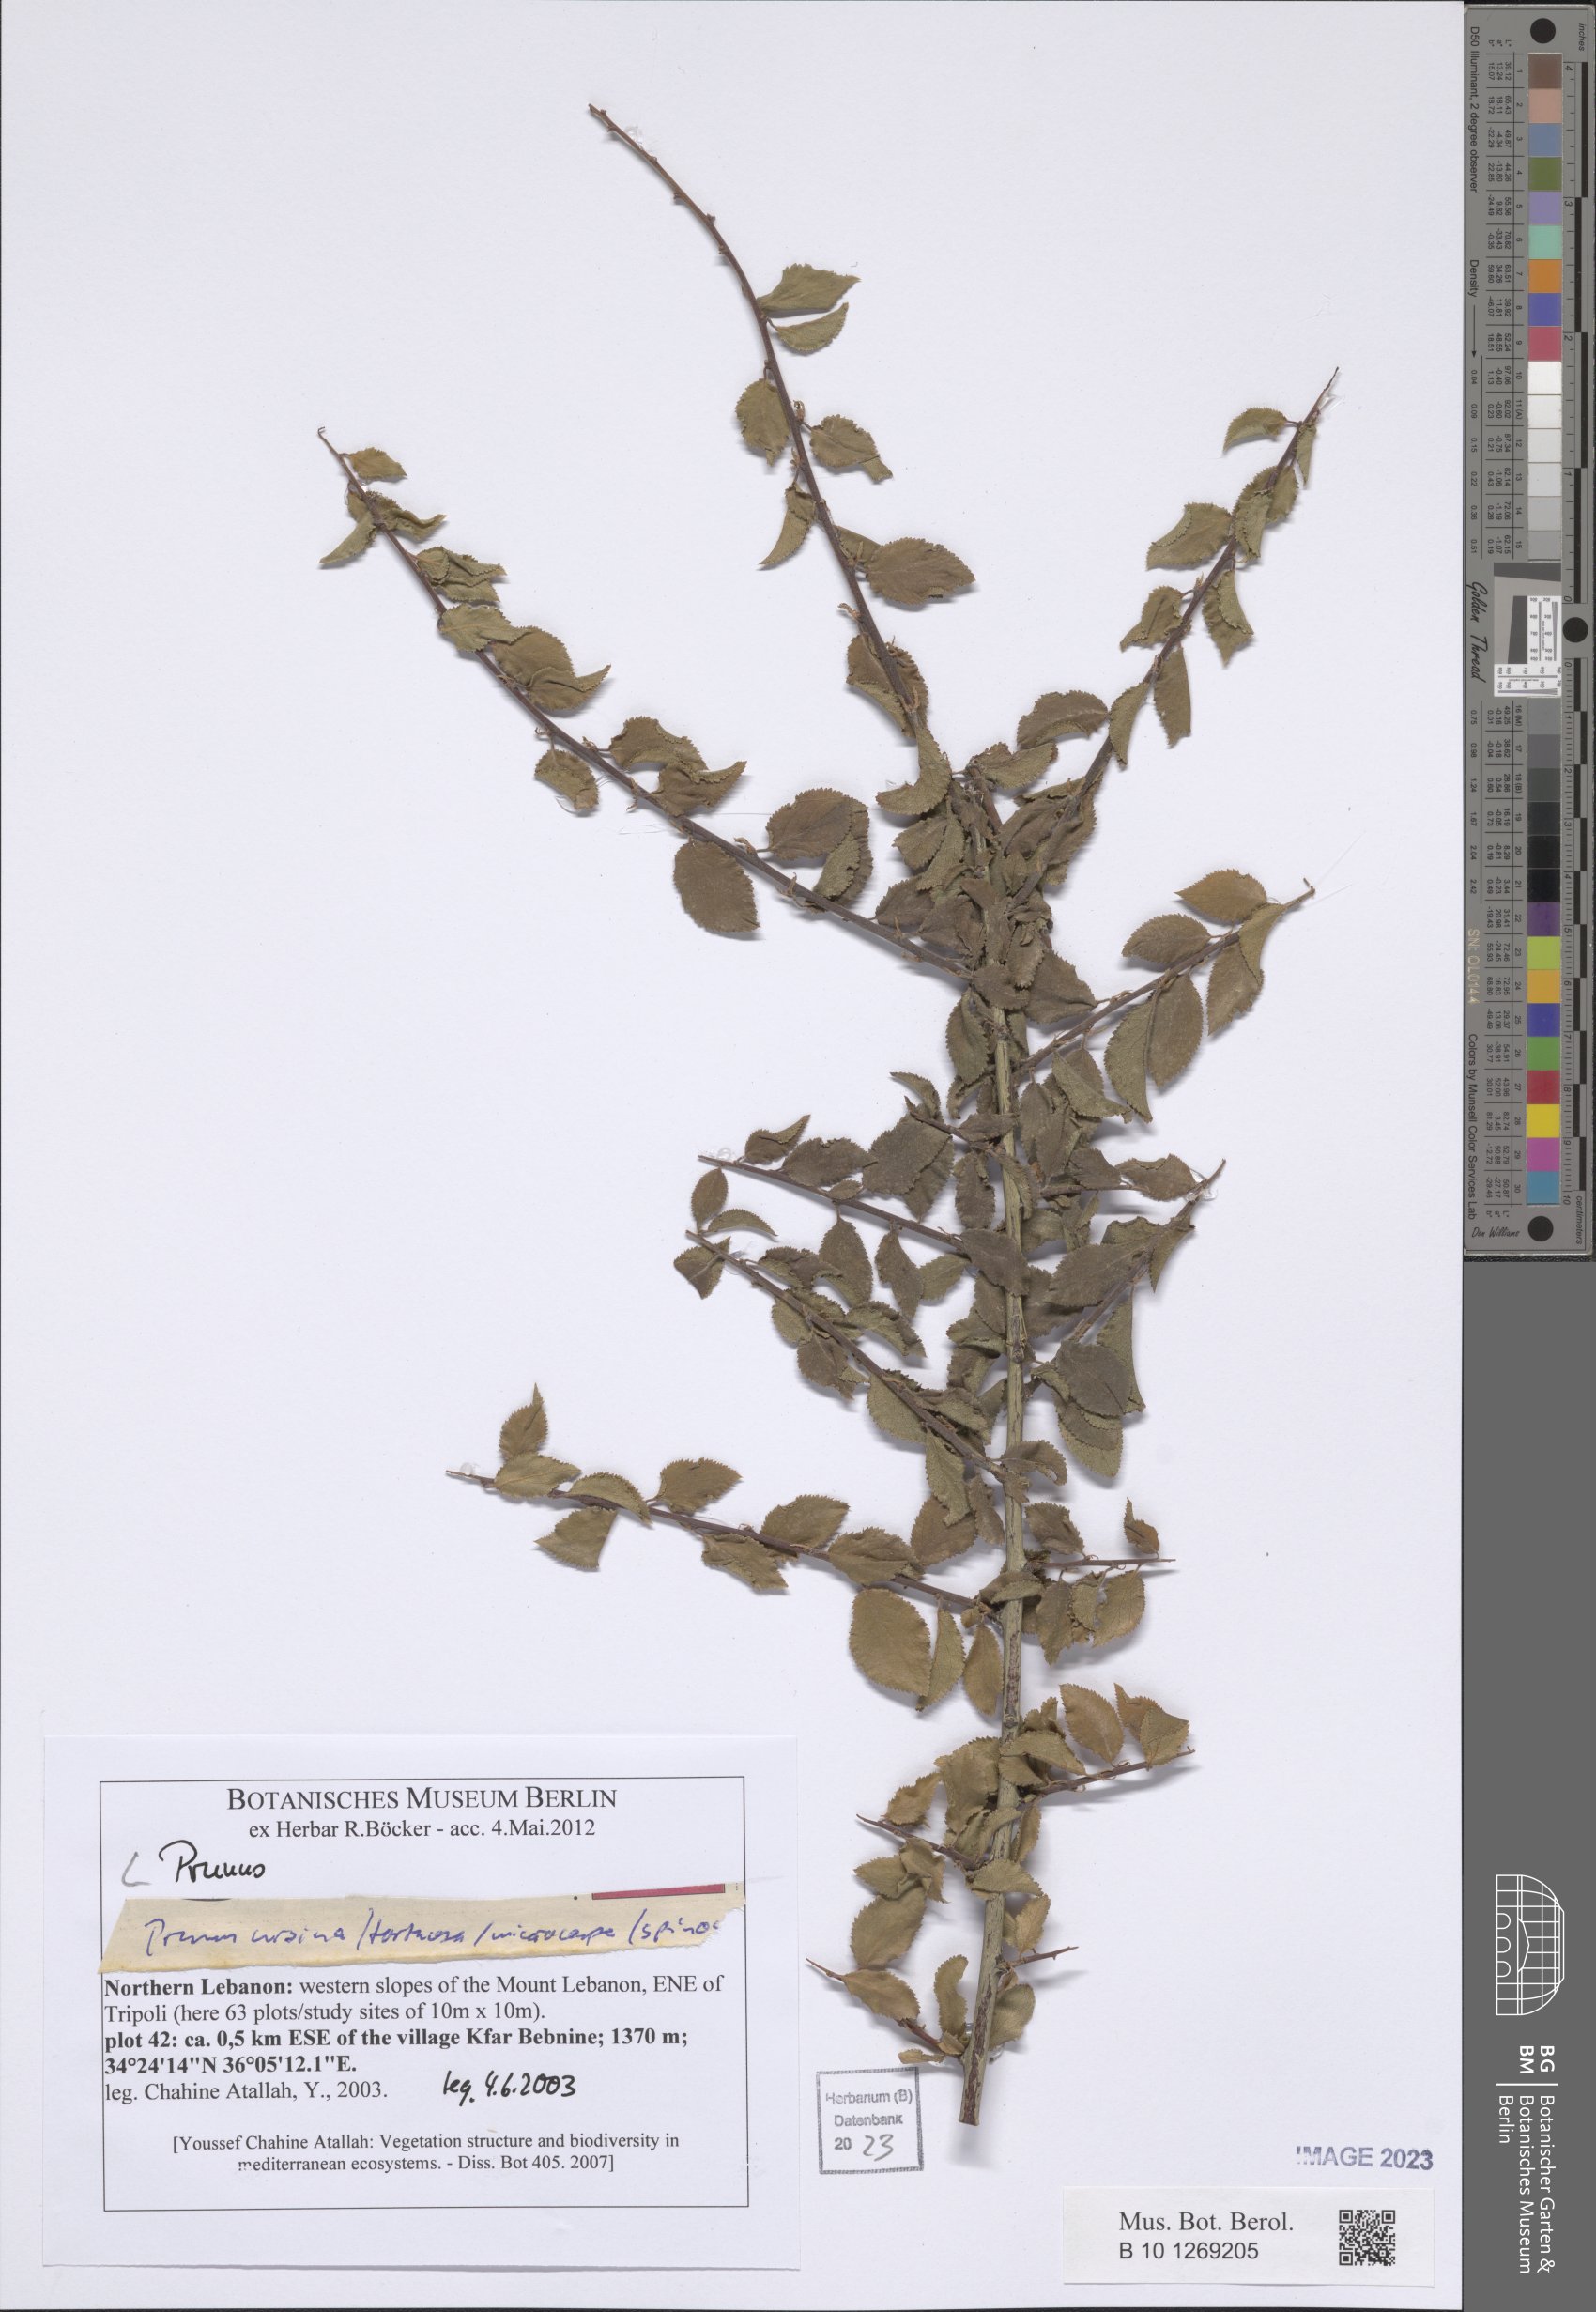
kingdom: Plantae
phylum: Tracheophyta
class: Magnoliopsida
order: Rosales
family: Rosaceae
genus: Prunus
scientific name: Prunus
